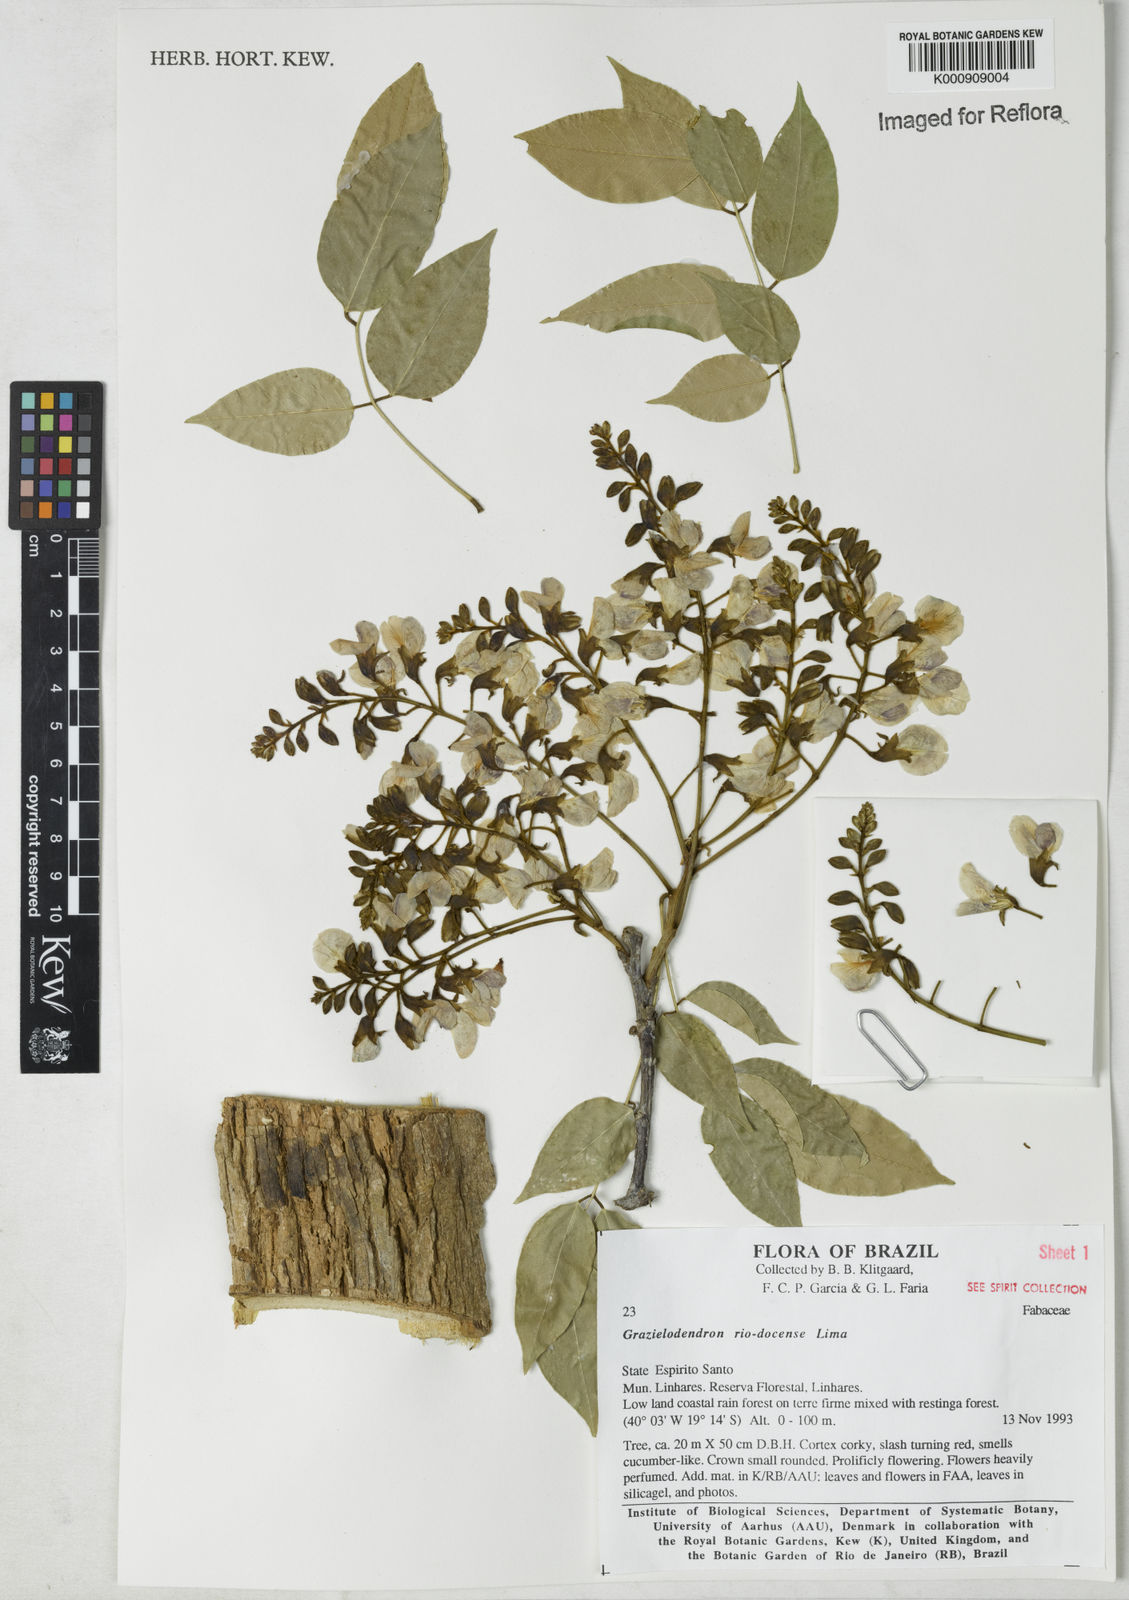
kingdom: Plantae
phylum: Tracheophyta
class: Magnoliopsida
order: Fabales
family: Fabaceae
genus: Grazielodendron
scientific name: Grazielodendron riodocensis
